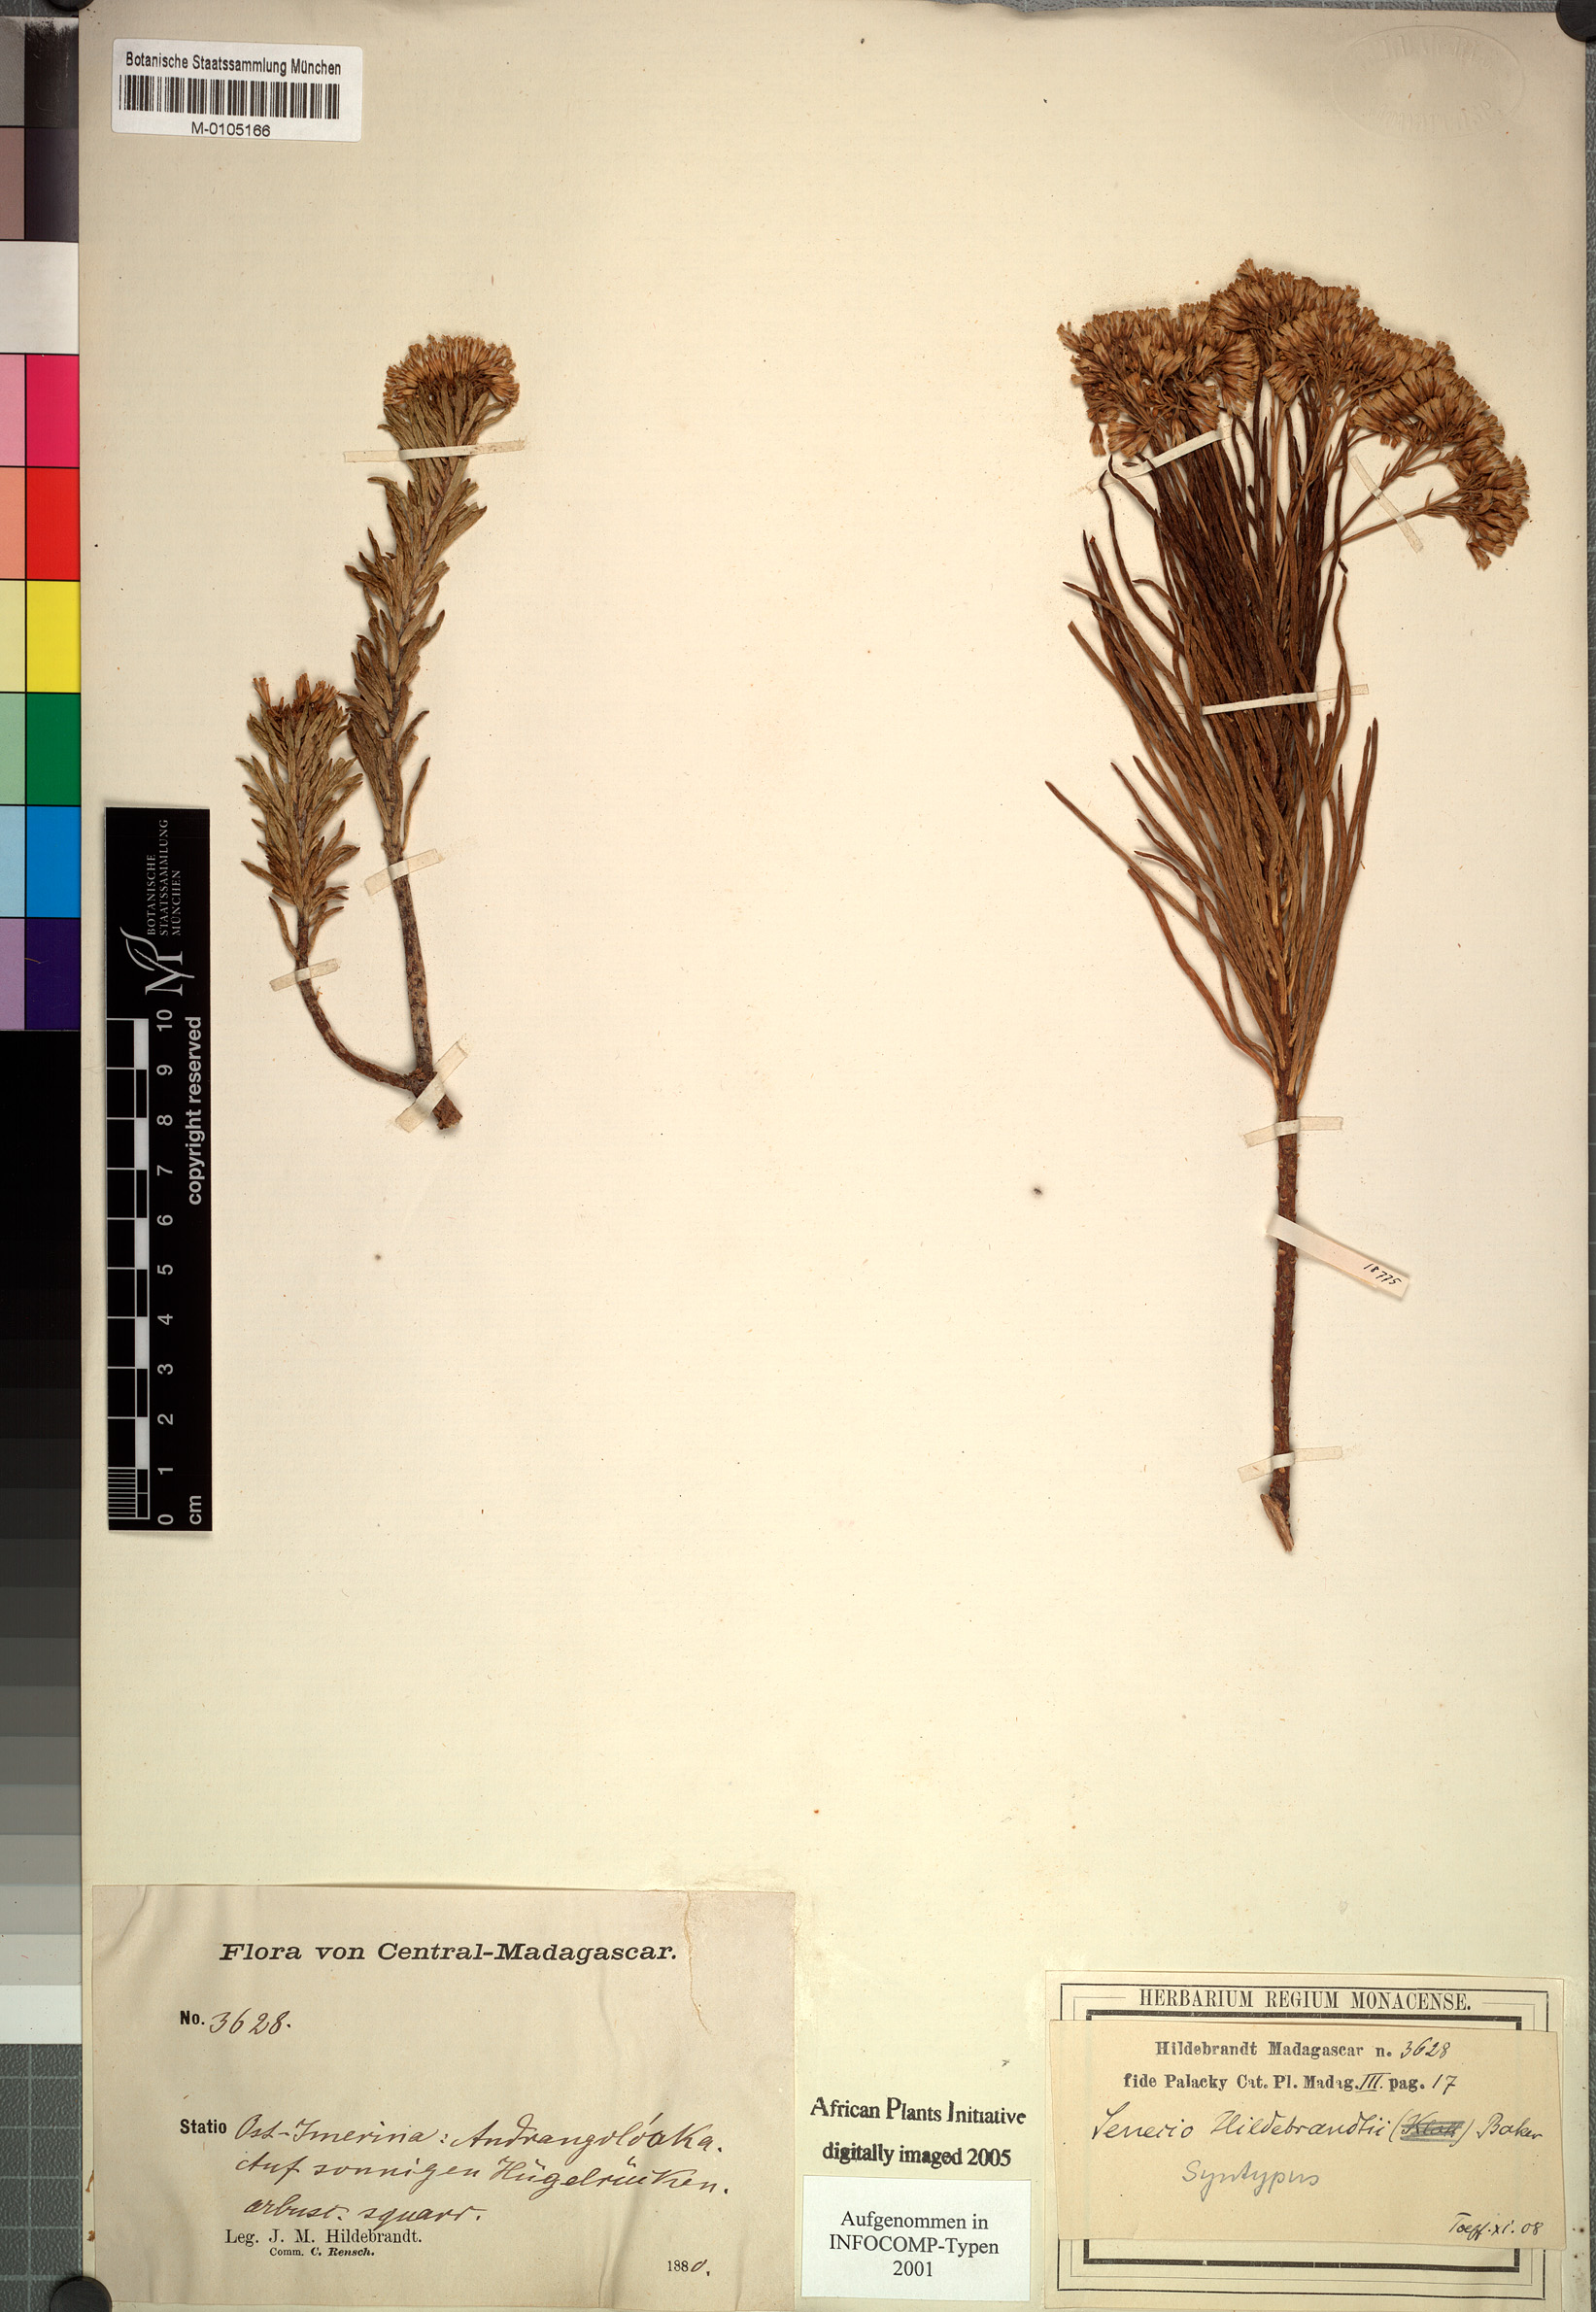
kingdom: Plantae
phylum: Tracheophyta
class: Magnoliopsida
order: Asterales
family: Asteraceae
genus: Senecio
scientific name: Senecio hildebrandtii
